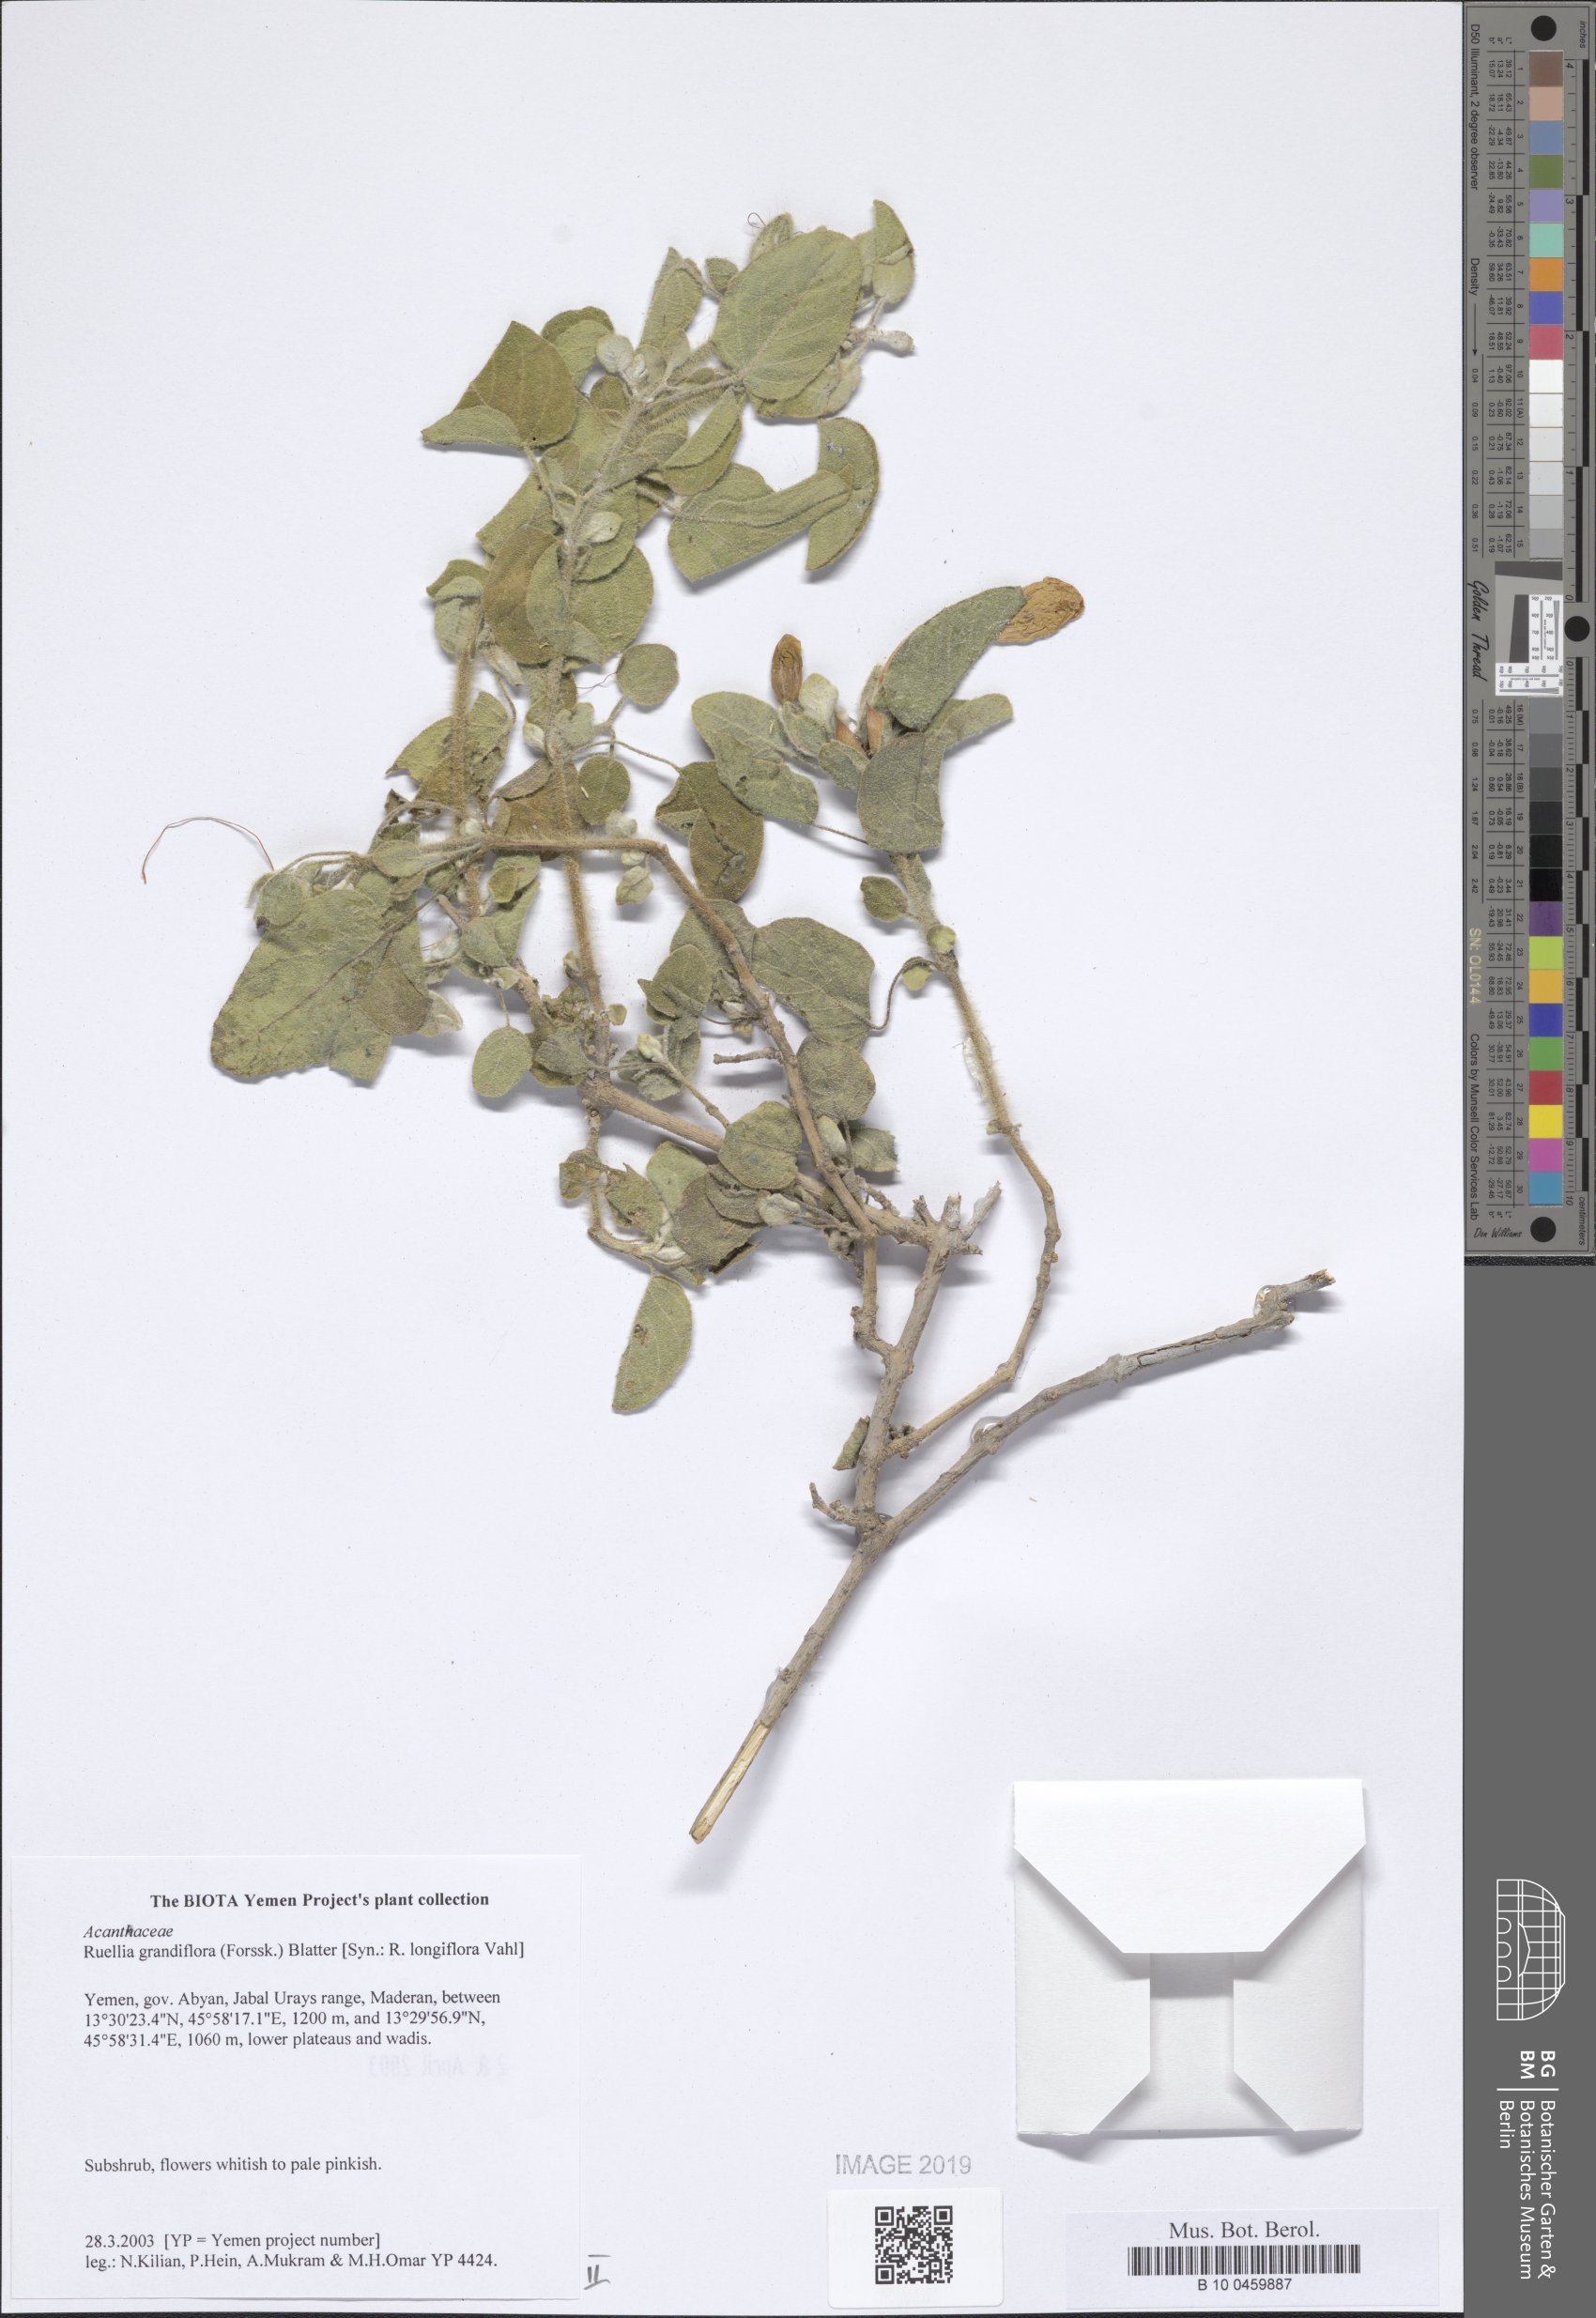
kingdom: Plantae
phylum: Tracheophyta
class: Magnoliopsida
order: Lamiales
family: Acanthaceae
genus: Ruellia
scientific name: Ruellia grandiflora
